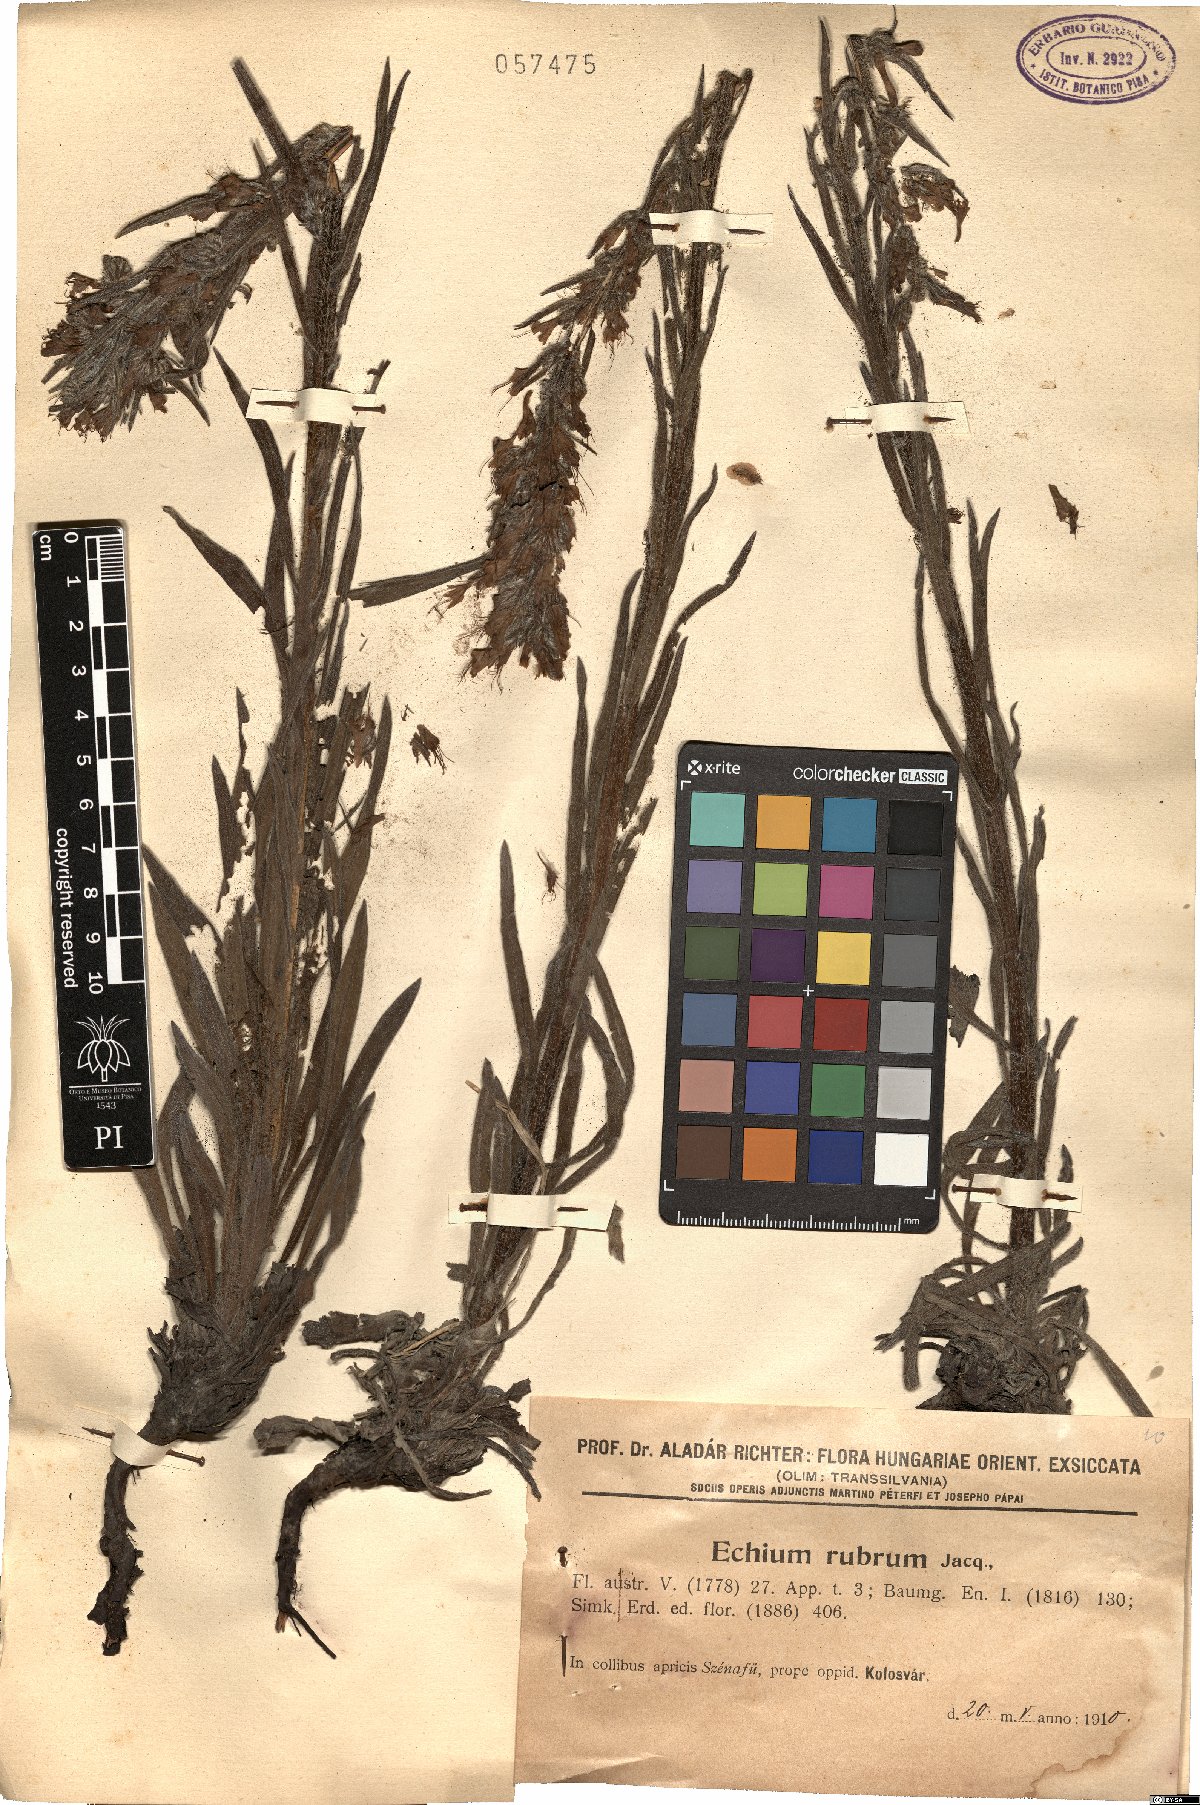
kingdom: Plantae
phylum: Tracheophyta
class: Magnoliopsida
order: Boraginales
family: Boraginaceae
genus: Pontechium
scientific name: Pontechium maculatum
